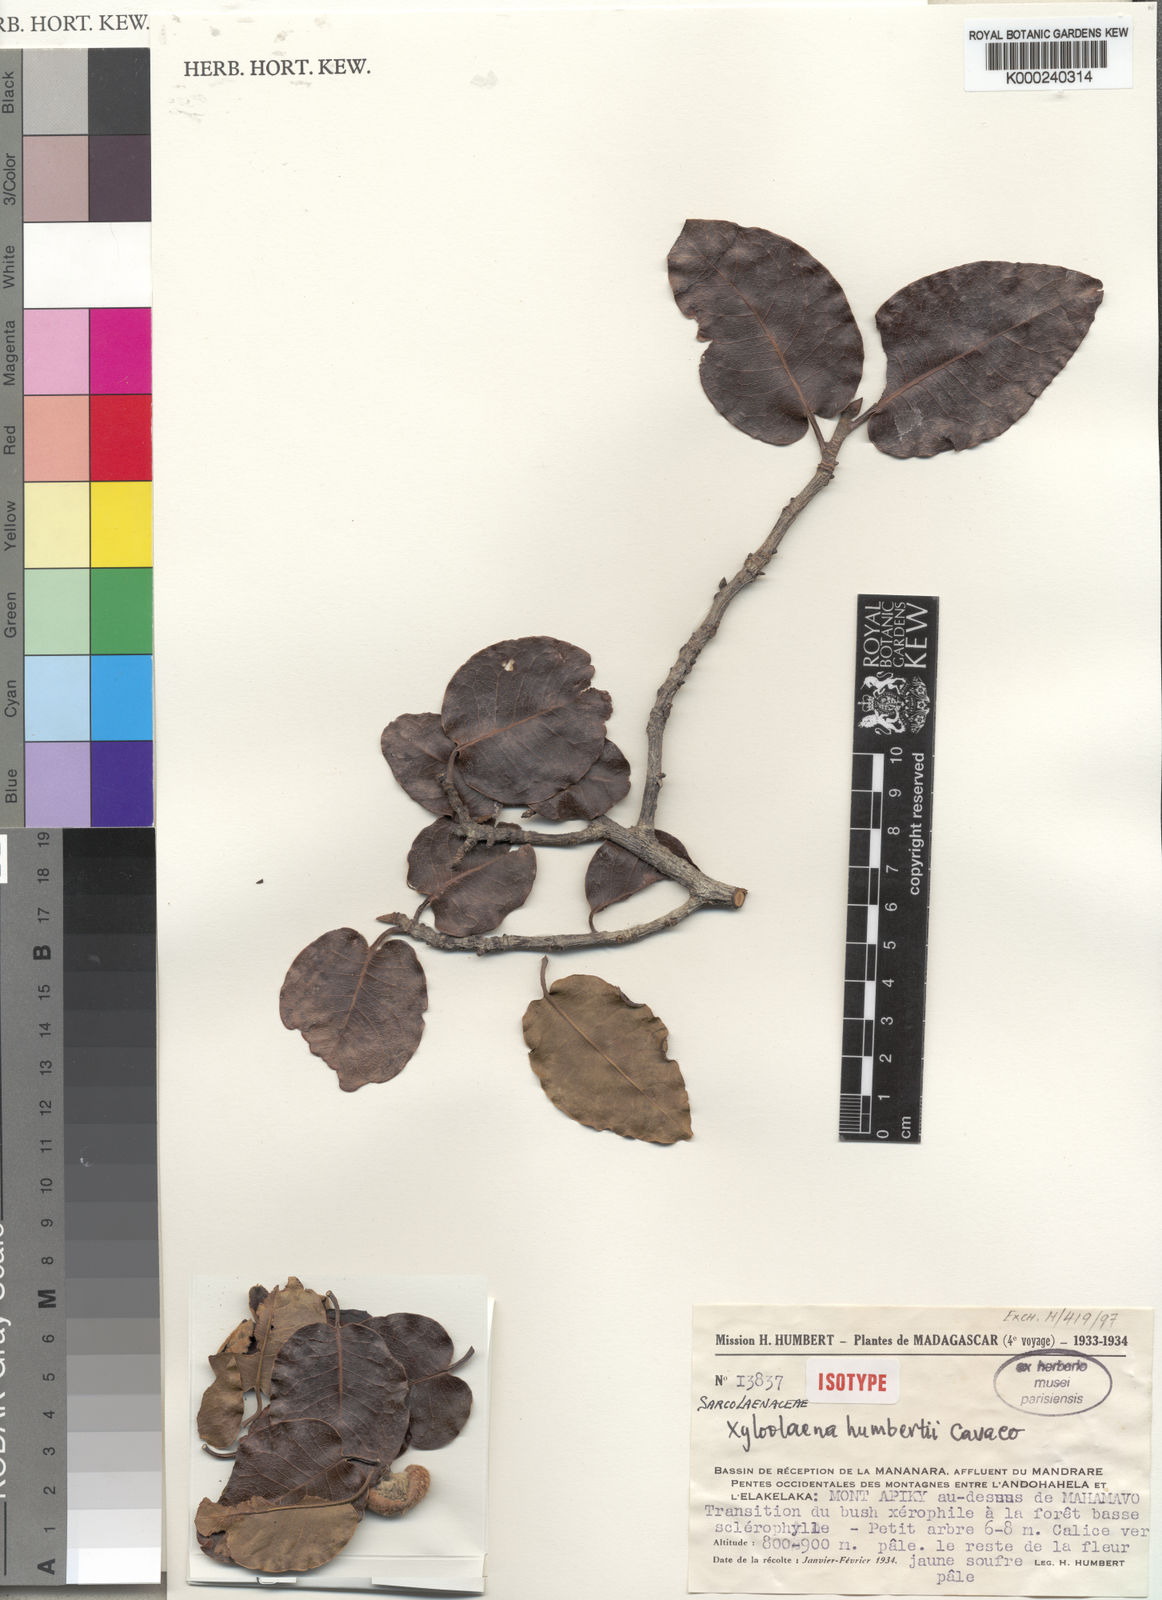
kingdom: Plantae
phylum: Tracheophyta
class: Magnoliopsida
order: Malvales
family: Sarcolaenaceae
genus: Xyloolaena
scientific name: Xyloolaena humbertii
